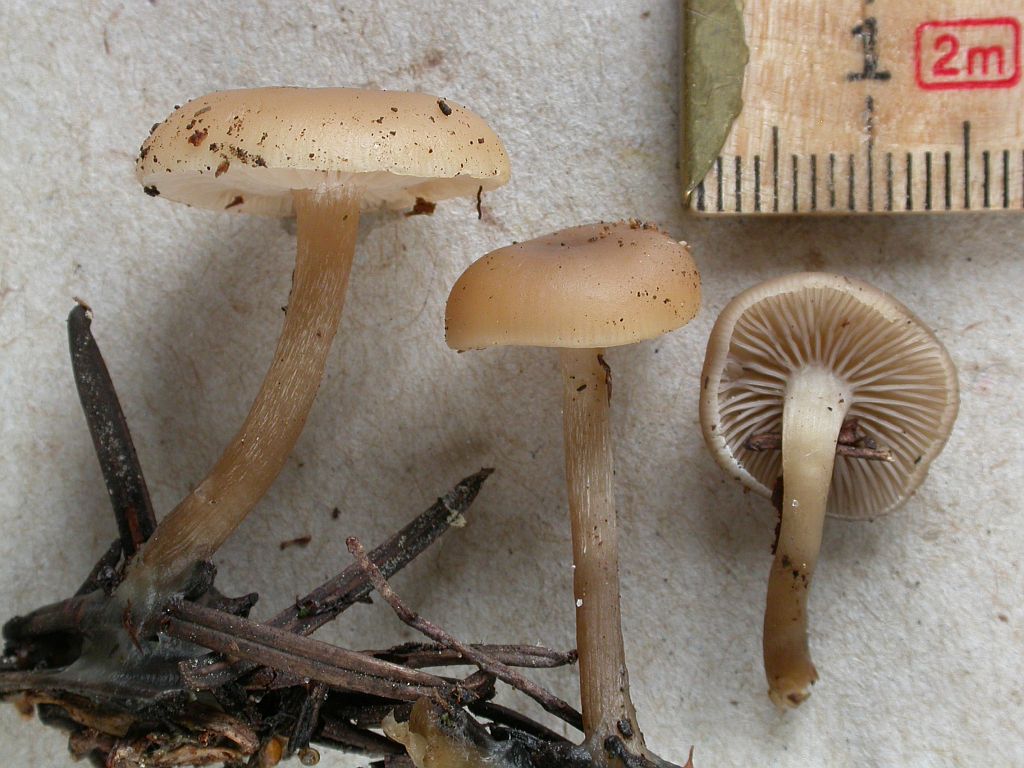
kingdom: Fungi
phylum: Basidiomycota
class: Agaricomycetes
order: Agaricales
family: Tricholomataceae
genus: Clitocybe
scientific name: Clitocybe metachroa
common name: grå tragthat
